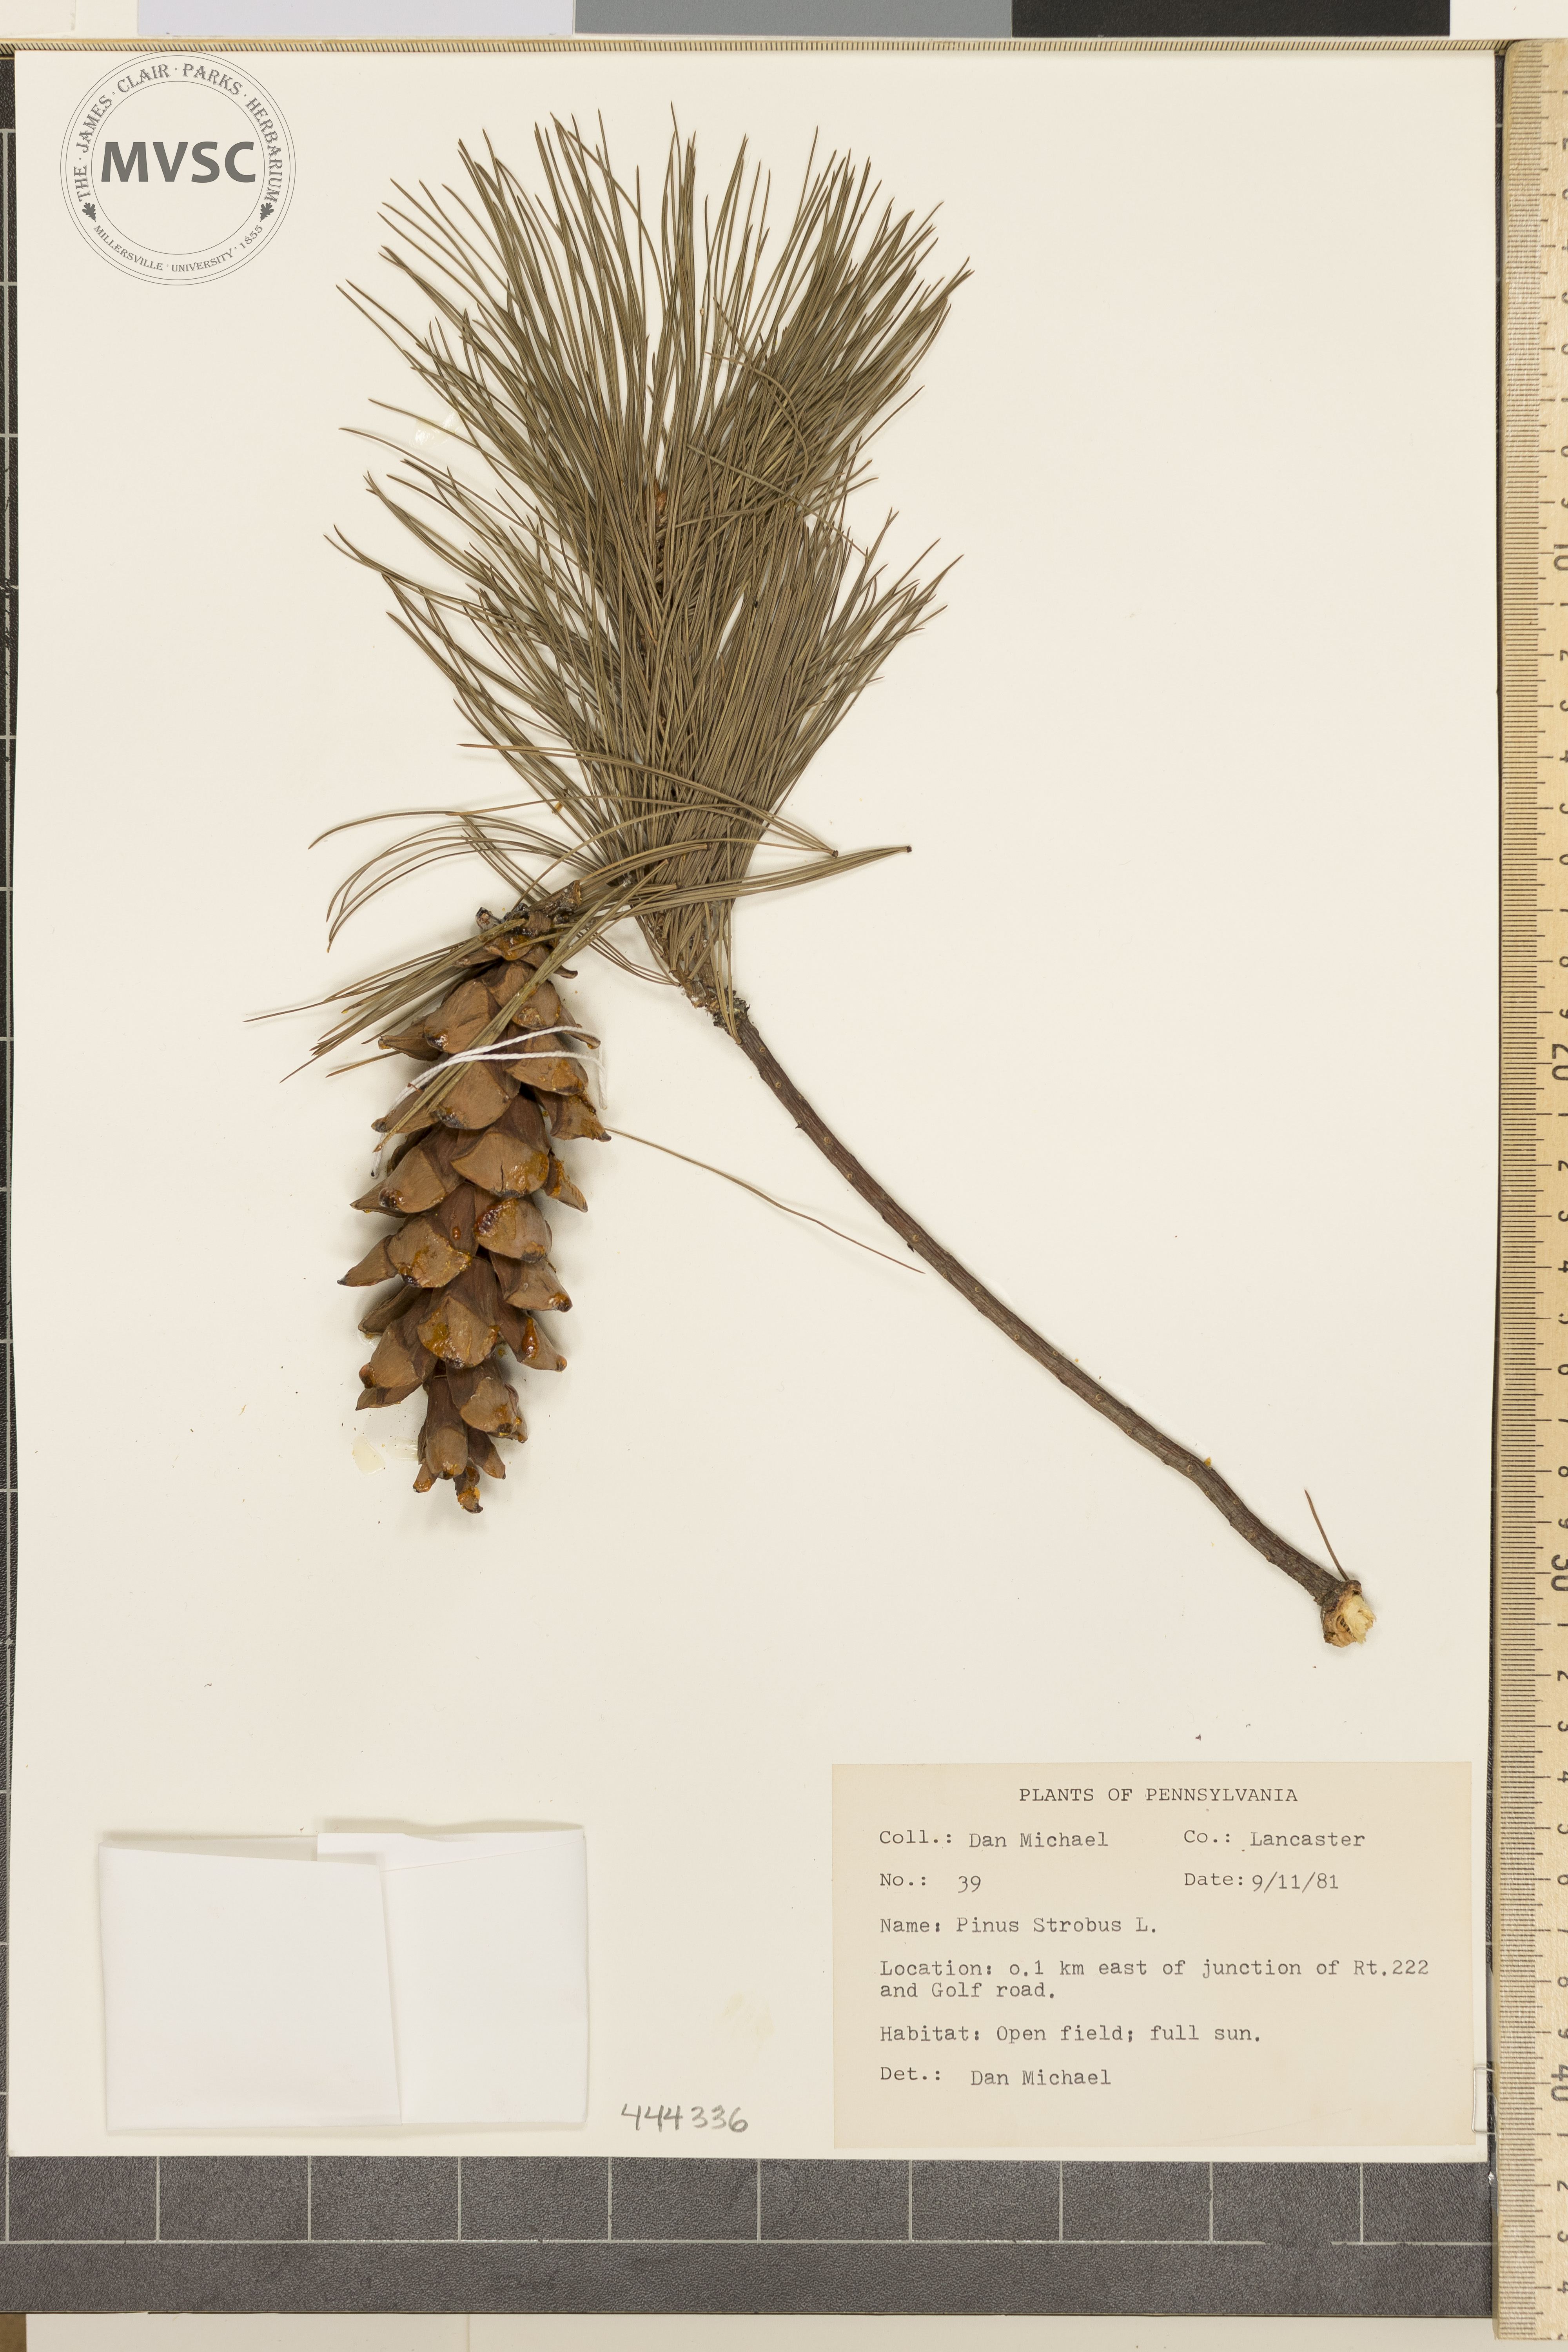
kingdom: Plantae
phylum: Tracheophyta
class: Pinopsida
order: Pinales
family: Pinaceae
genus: Pinus
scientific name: Pinus strobus
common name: Weymouth pine
